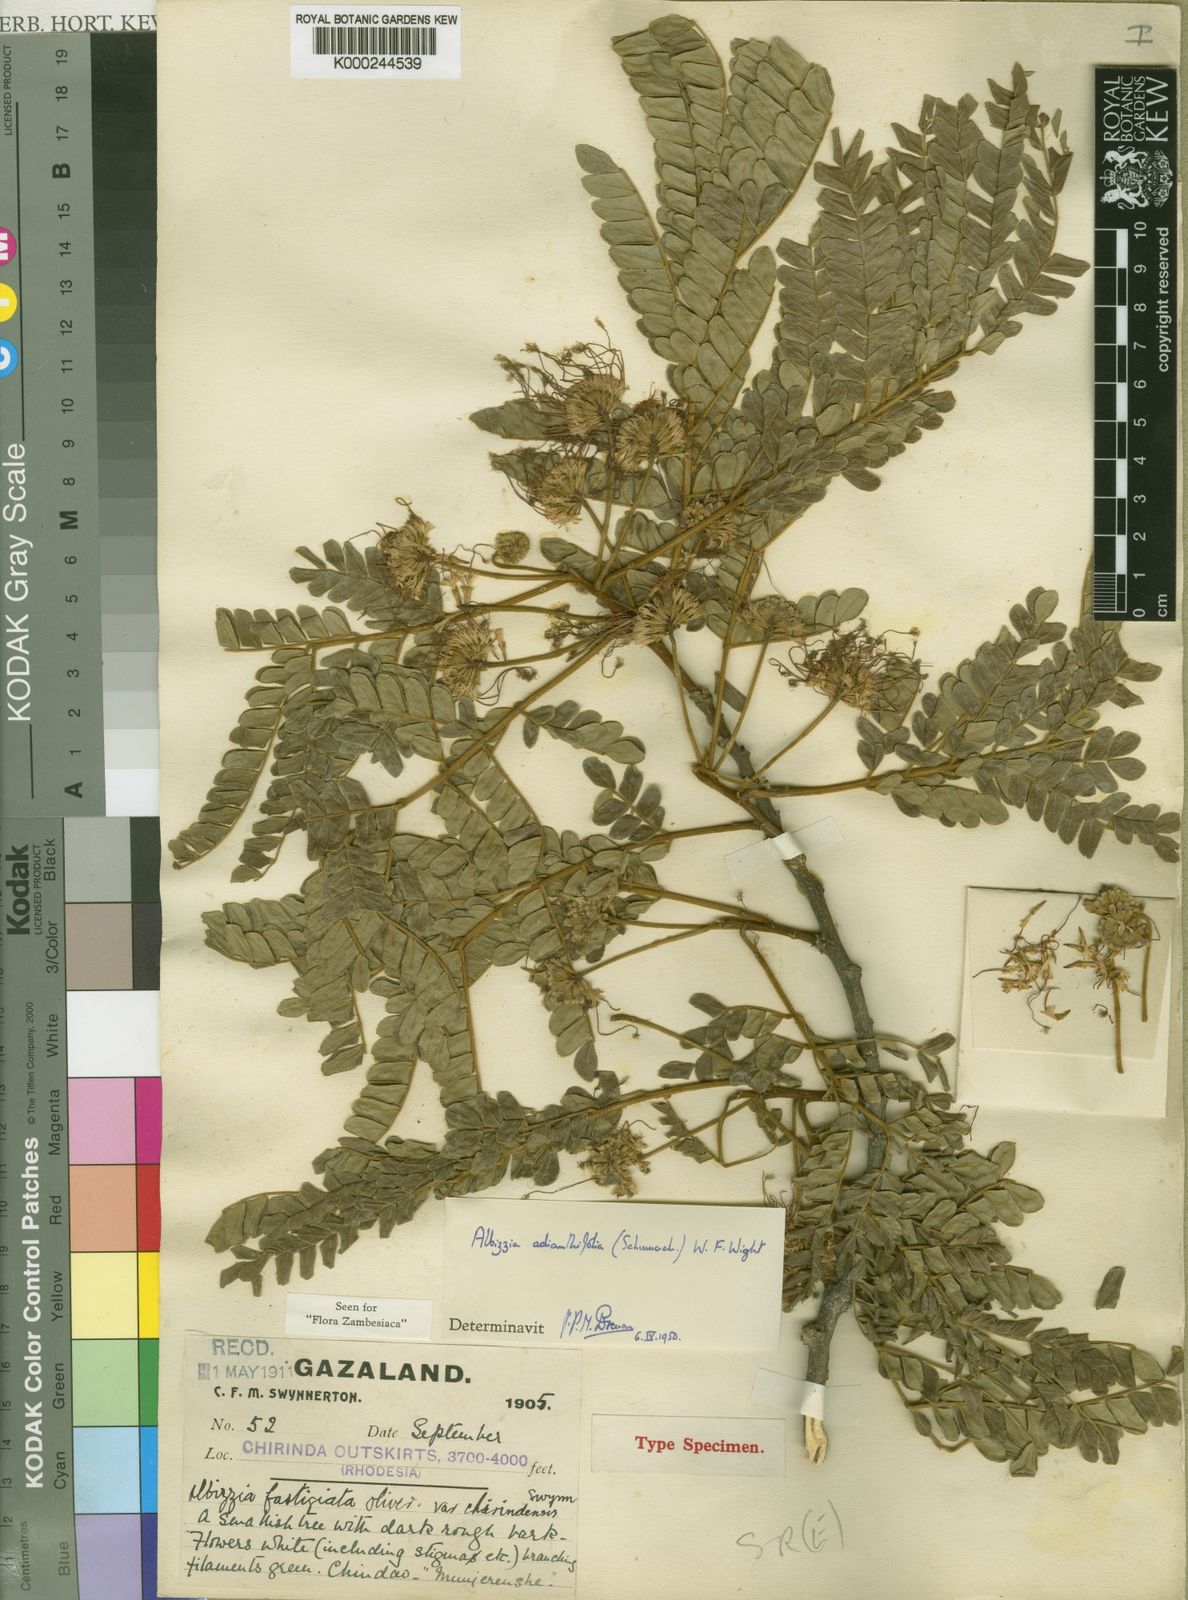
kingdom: Plantae
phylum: Tracheophyta
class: Magnoliopsida
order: Fabales
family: Fabaceae
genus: Albizia
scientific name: Albizia adianthifolia
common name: West african albizia
